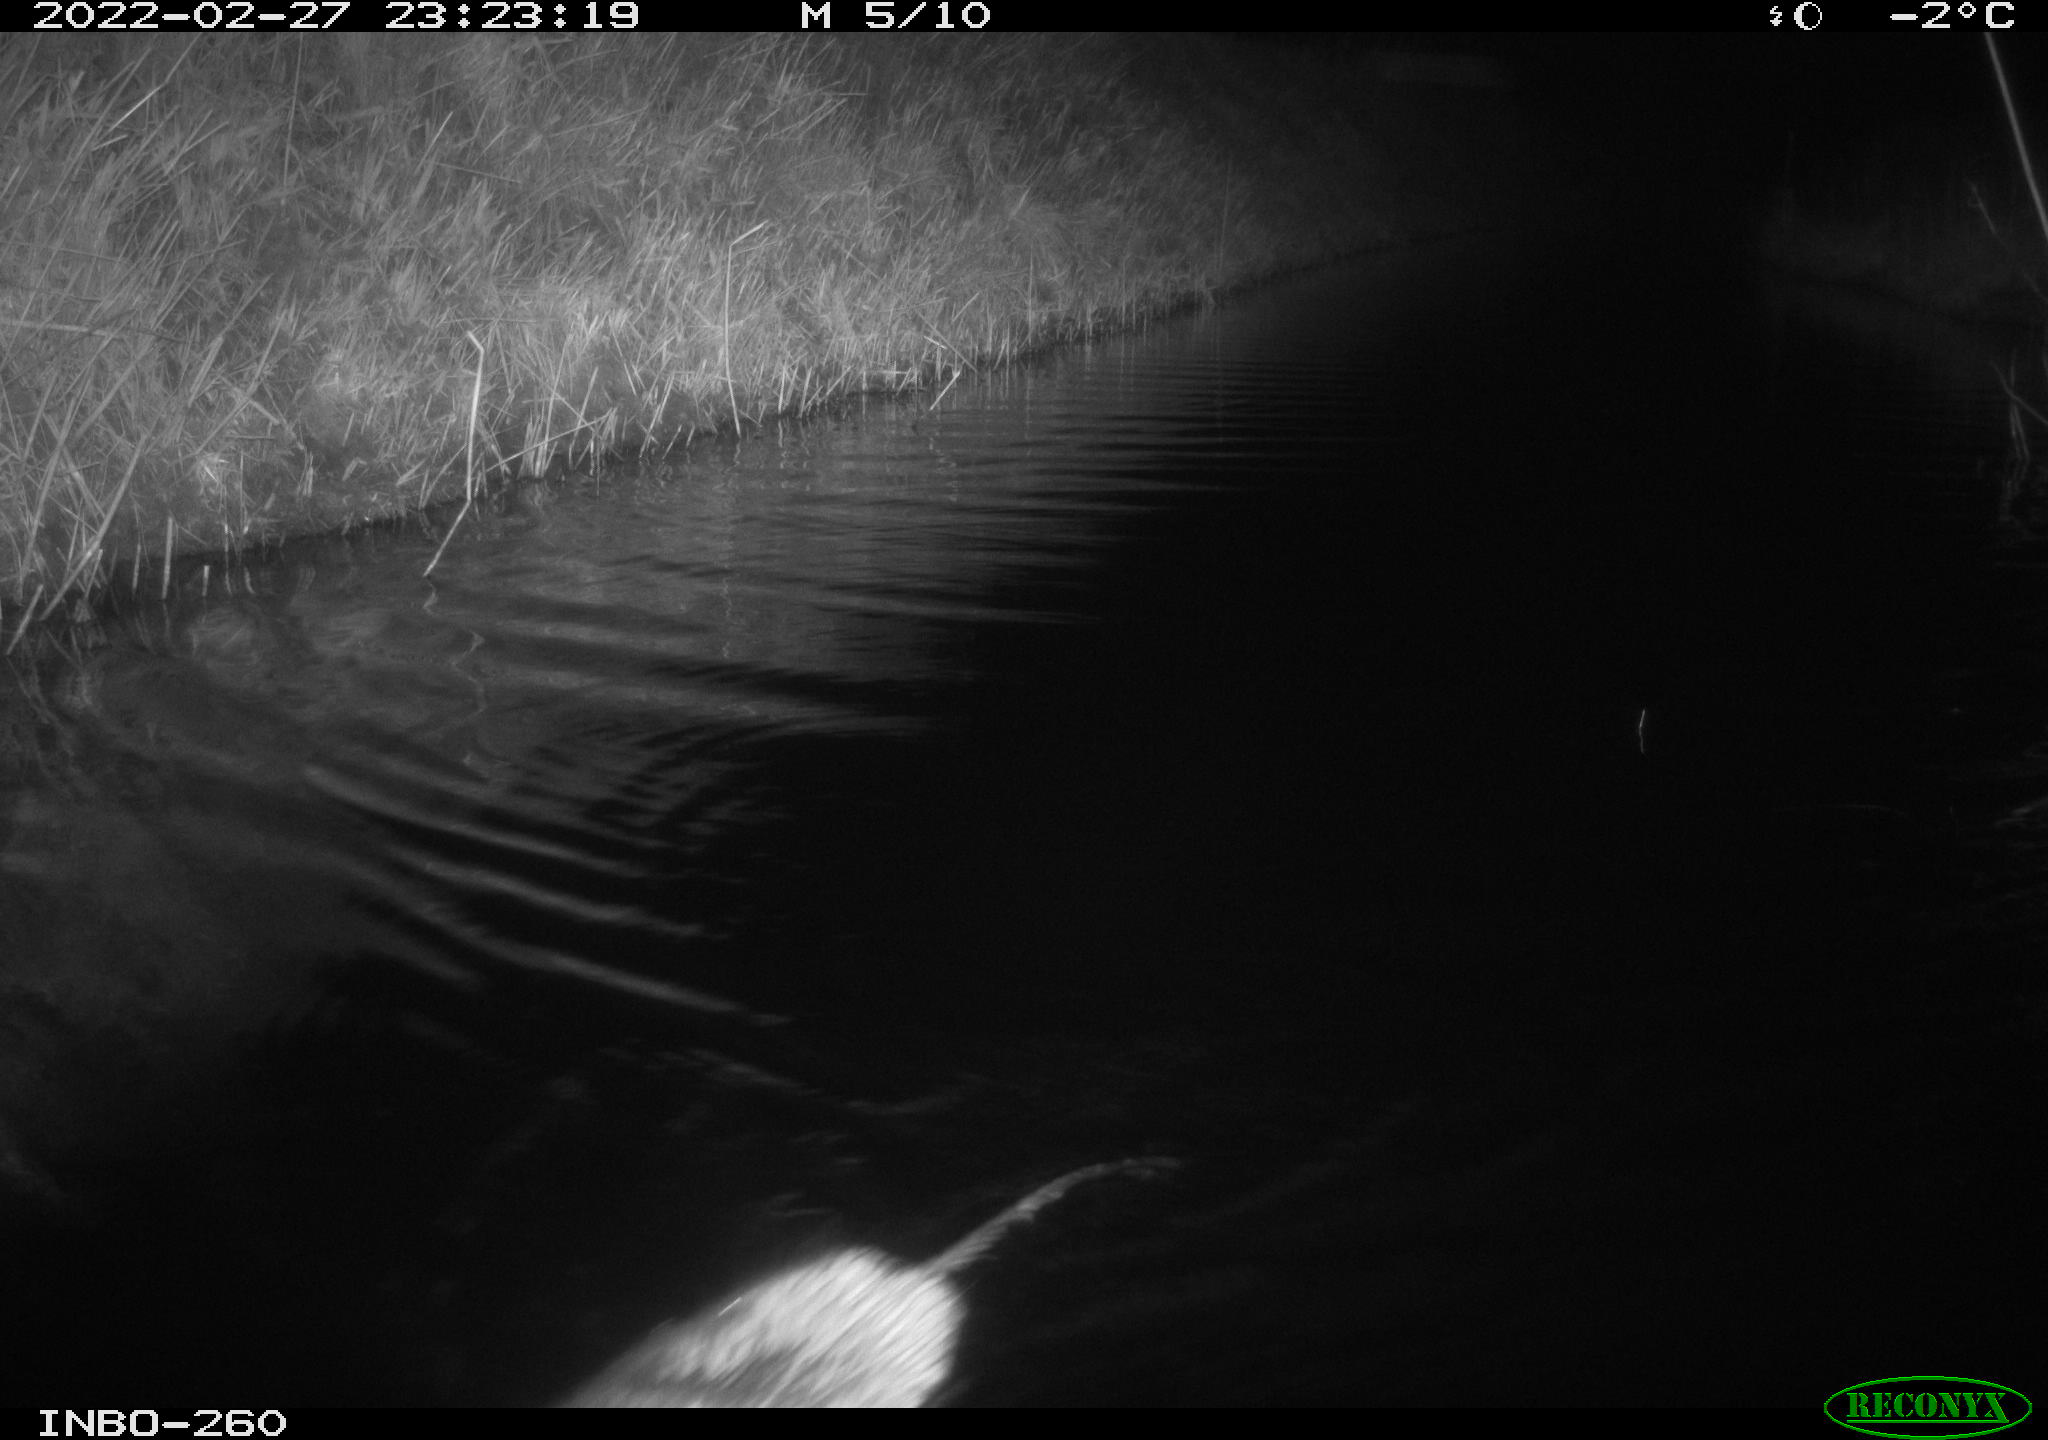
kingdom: Animalia
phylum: Chordata
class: Mammalia
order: Rodentia
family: Cricetidae
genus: Ondatra
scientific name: Ondatra zibethicus
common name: Muskrat
